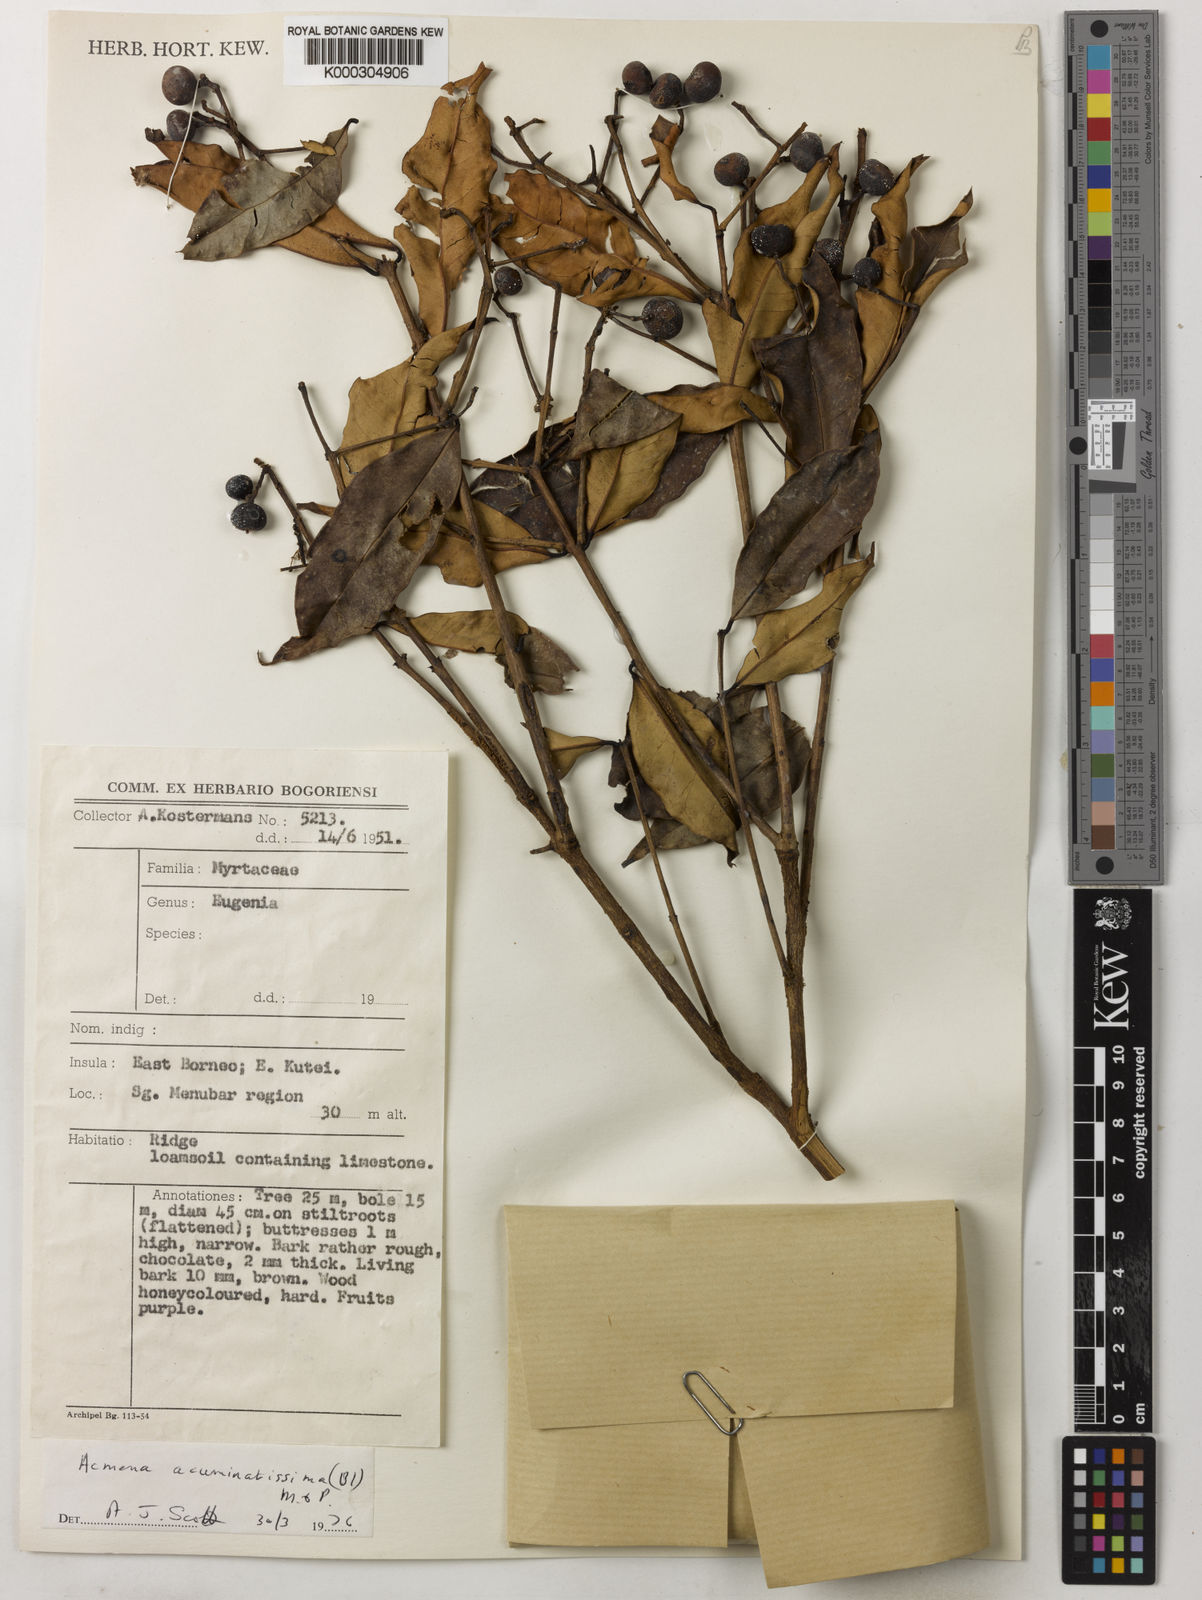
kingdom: Plantae
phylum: Tracheophyta
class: Magnoliopsida
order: Myrtales
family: Myrtaceae
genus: Syzygium
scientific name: Syzygium acuminatissimum
